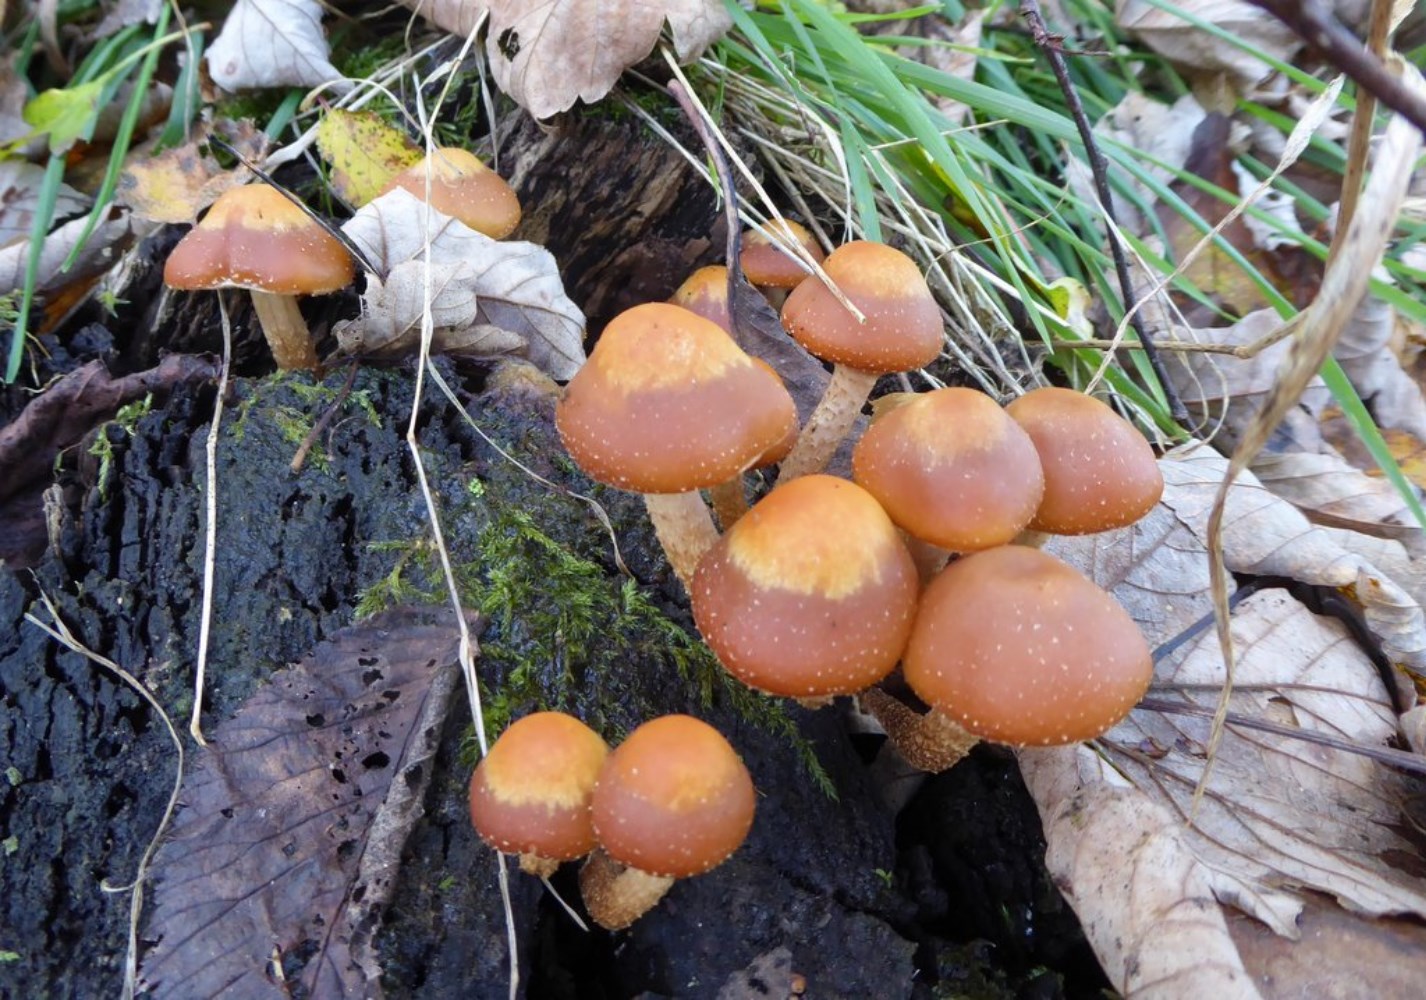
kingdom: Fungi
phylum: Basidiomycota
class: Agaricomycetes
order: Agaricales
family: Strophariaceae
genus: Kuehneromyces
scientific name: Kuehneromyces mutabilis
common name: foranderlig skælhat
